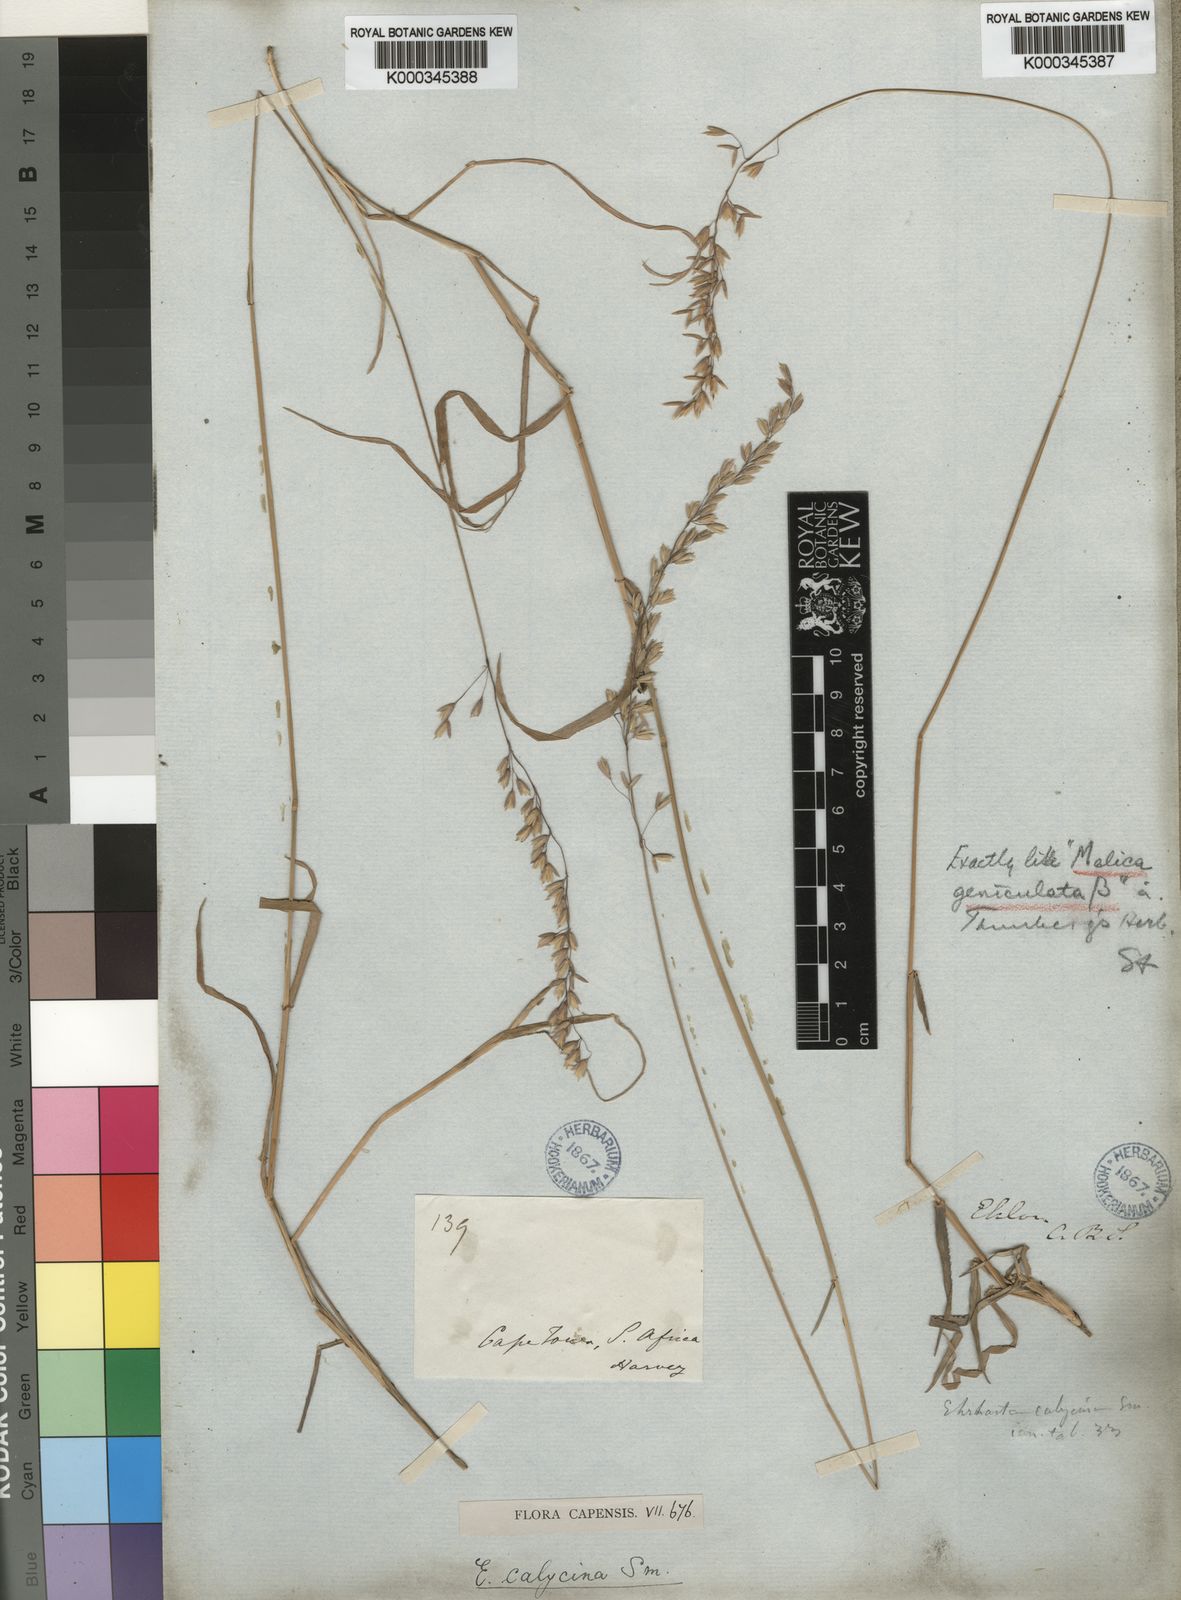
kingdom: Plantae
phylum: Tracheophyta
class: Liliopsida
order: Poales
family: Poaceae
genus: Ehrharta
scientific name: Ehrharta calycina
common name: Perennial veldtgrass
